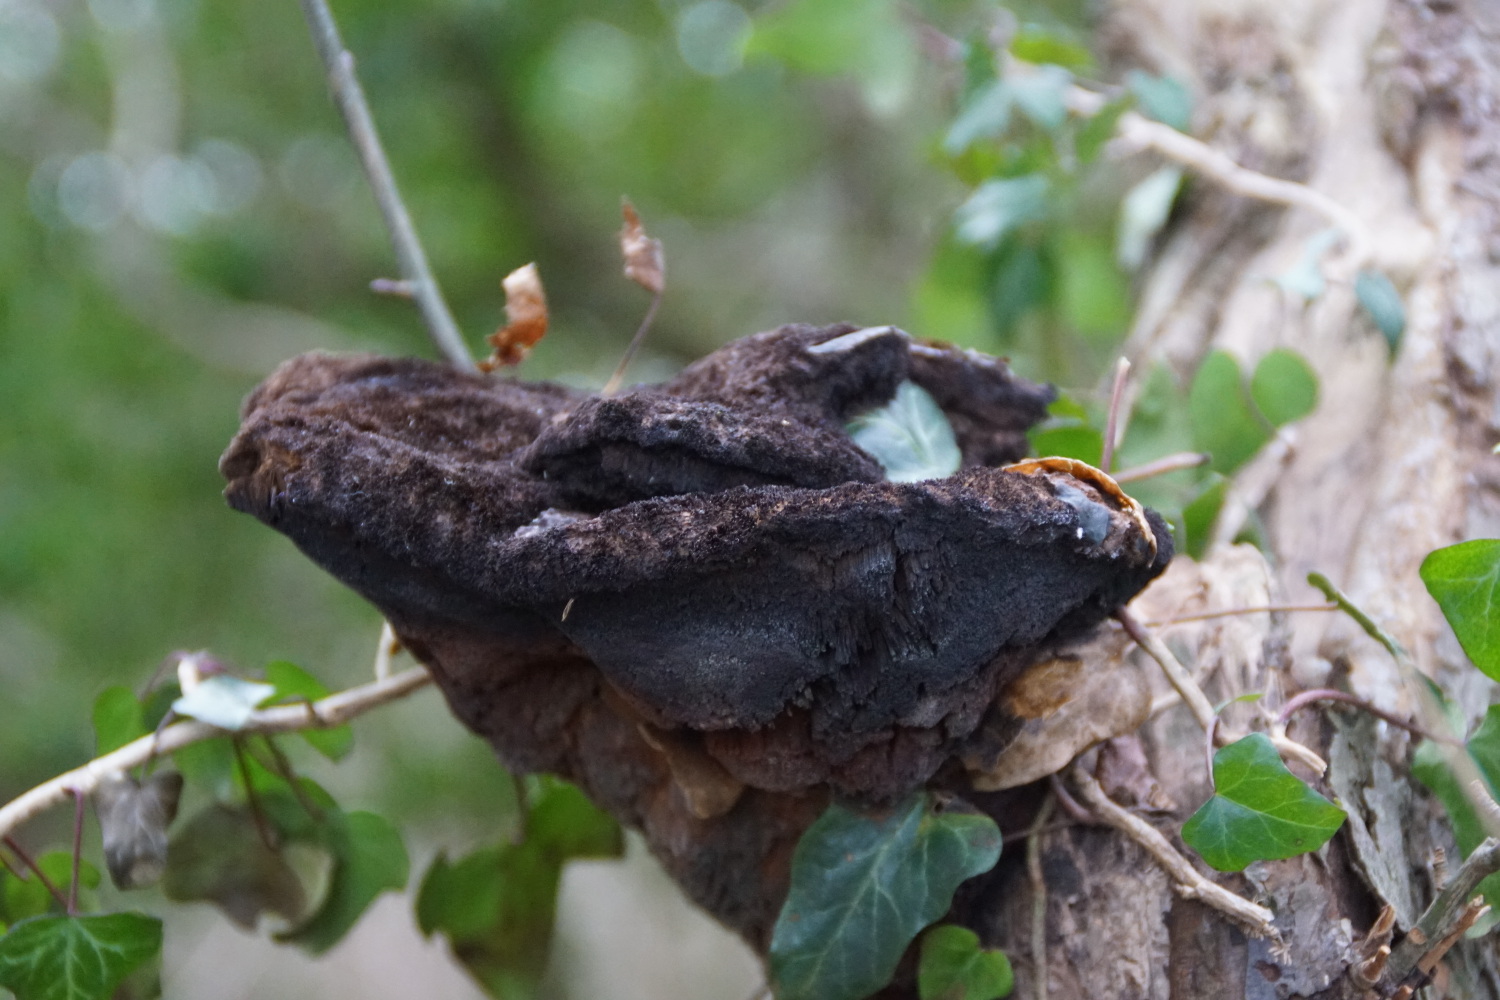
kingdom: Fungi
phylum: Basidiomycota
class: Agaricomycetes
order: Hymenochaetales
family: Hymenochaetaceae
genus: Inonotus
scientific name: Inonotus hispidus
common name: børstehåret spejlporesvamp
